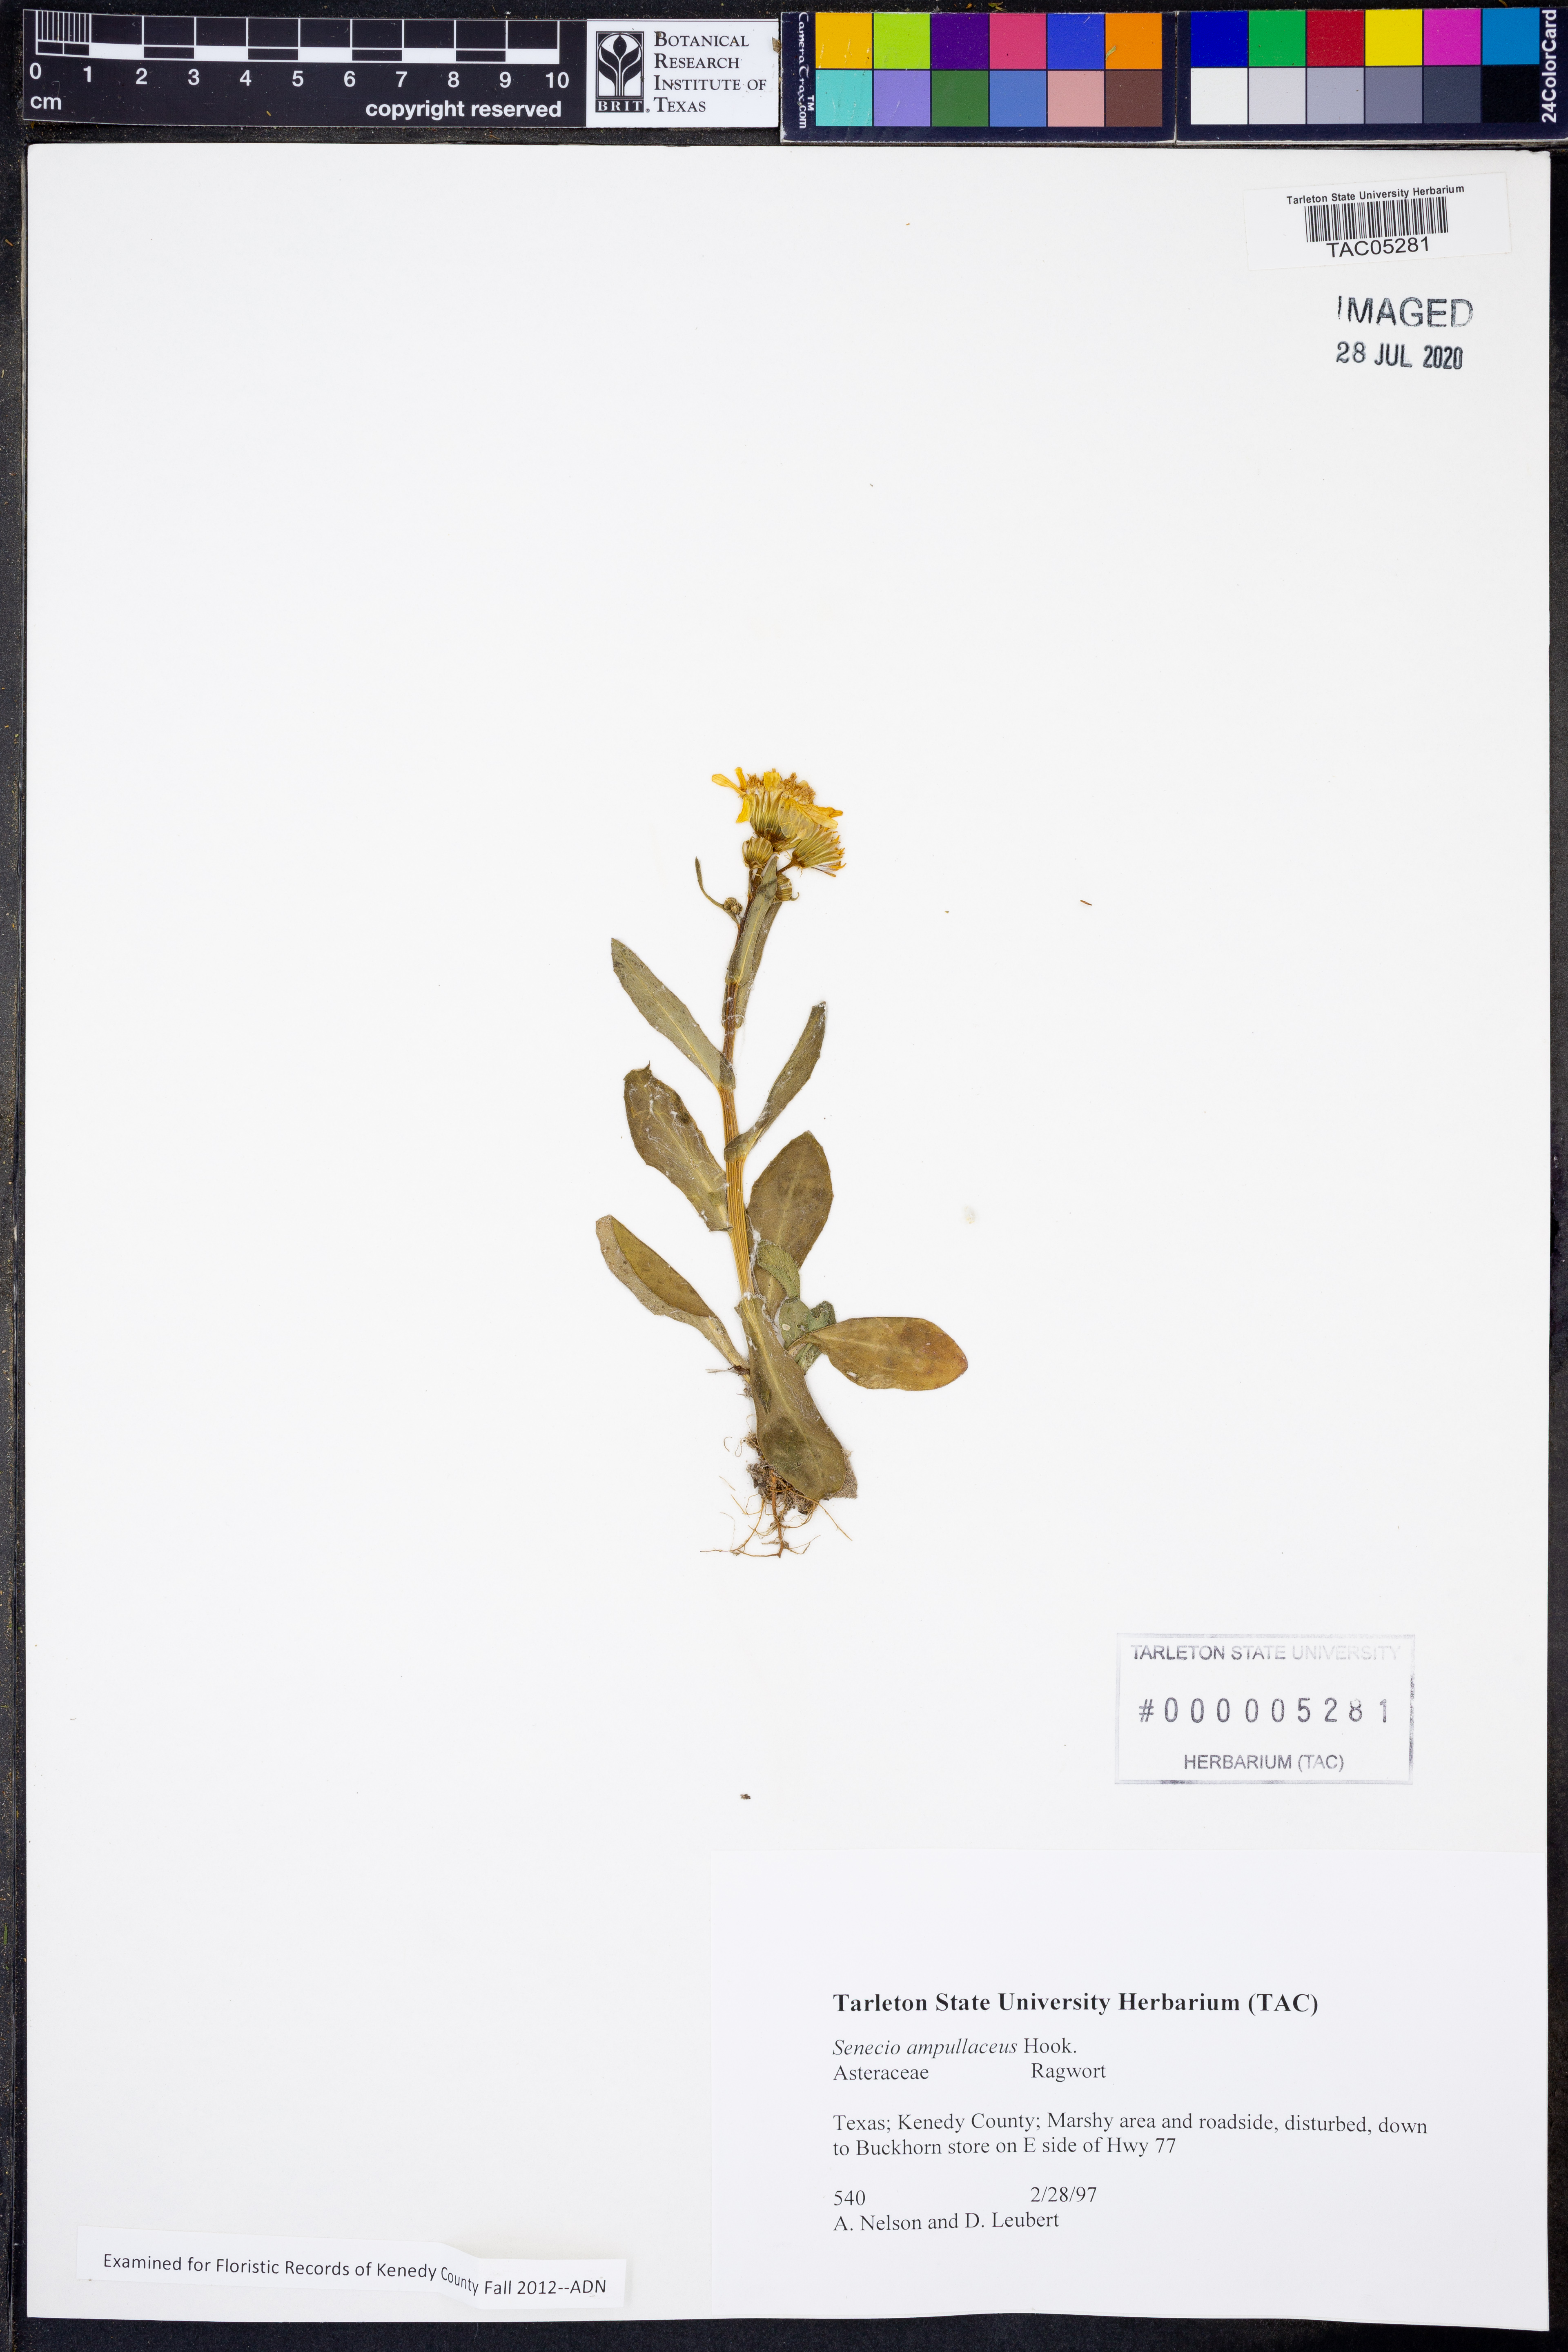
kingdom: Plantae
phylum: Tracheophyta
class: Magnoliopsida
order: Asterales
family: Asteraceae
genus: Senecio
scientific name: Senecio ampullaceus
